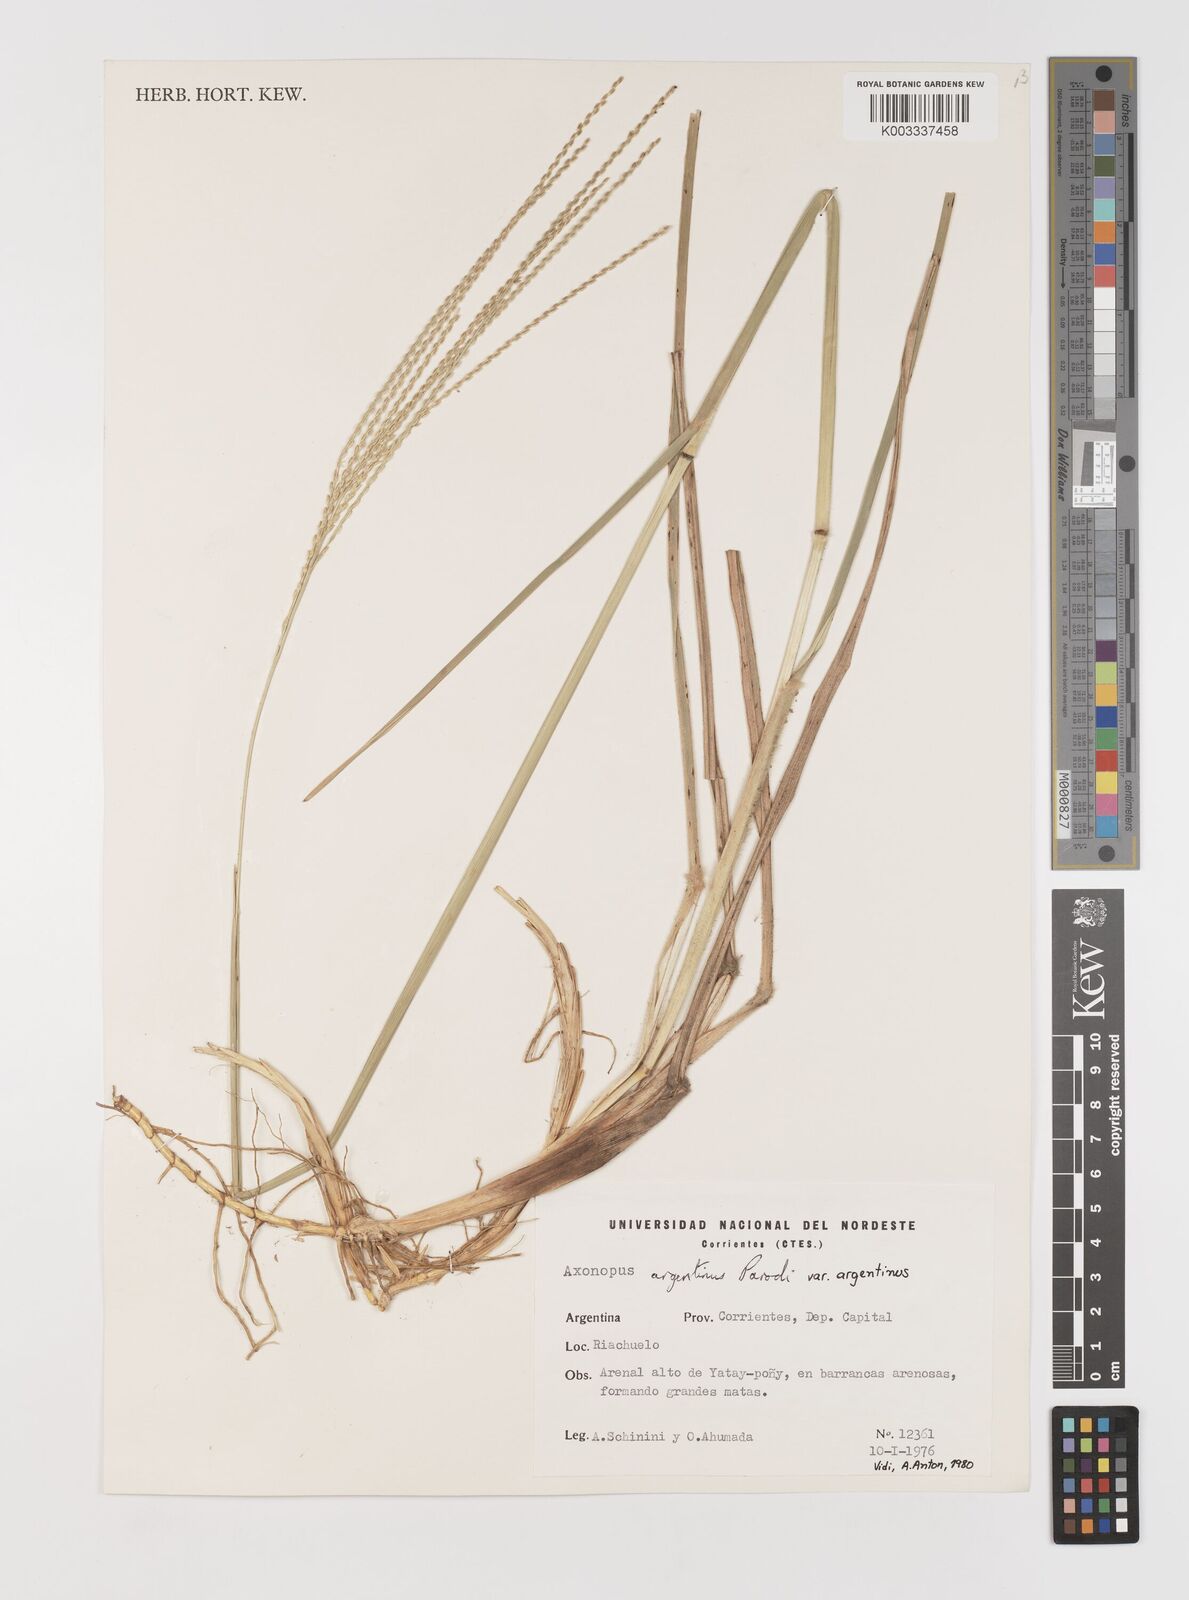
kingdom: Plantae
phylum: Tracheophyta
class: Liliopsida
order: Poales
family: Poaceae
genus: Axonopus
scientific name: Axonopus argentinus
